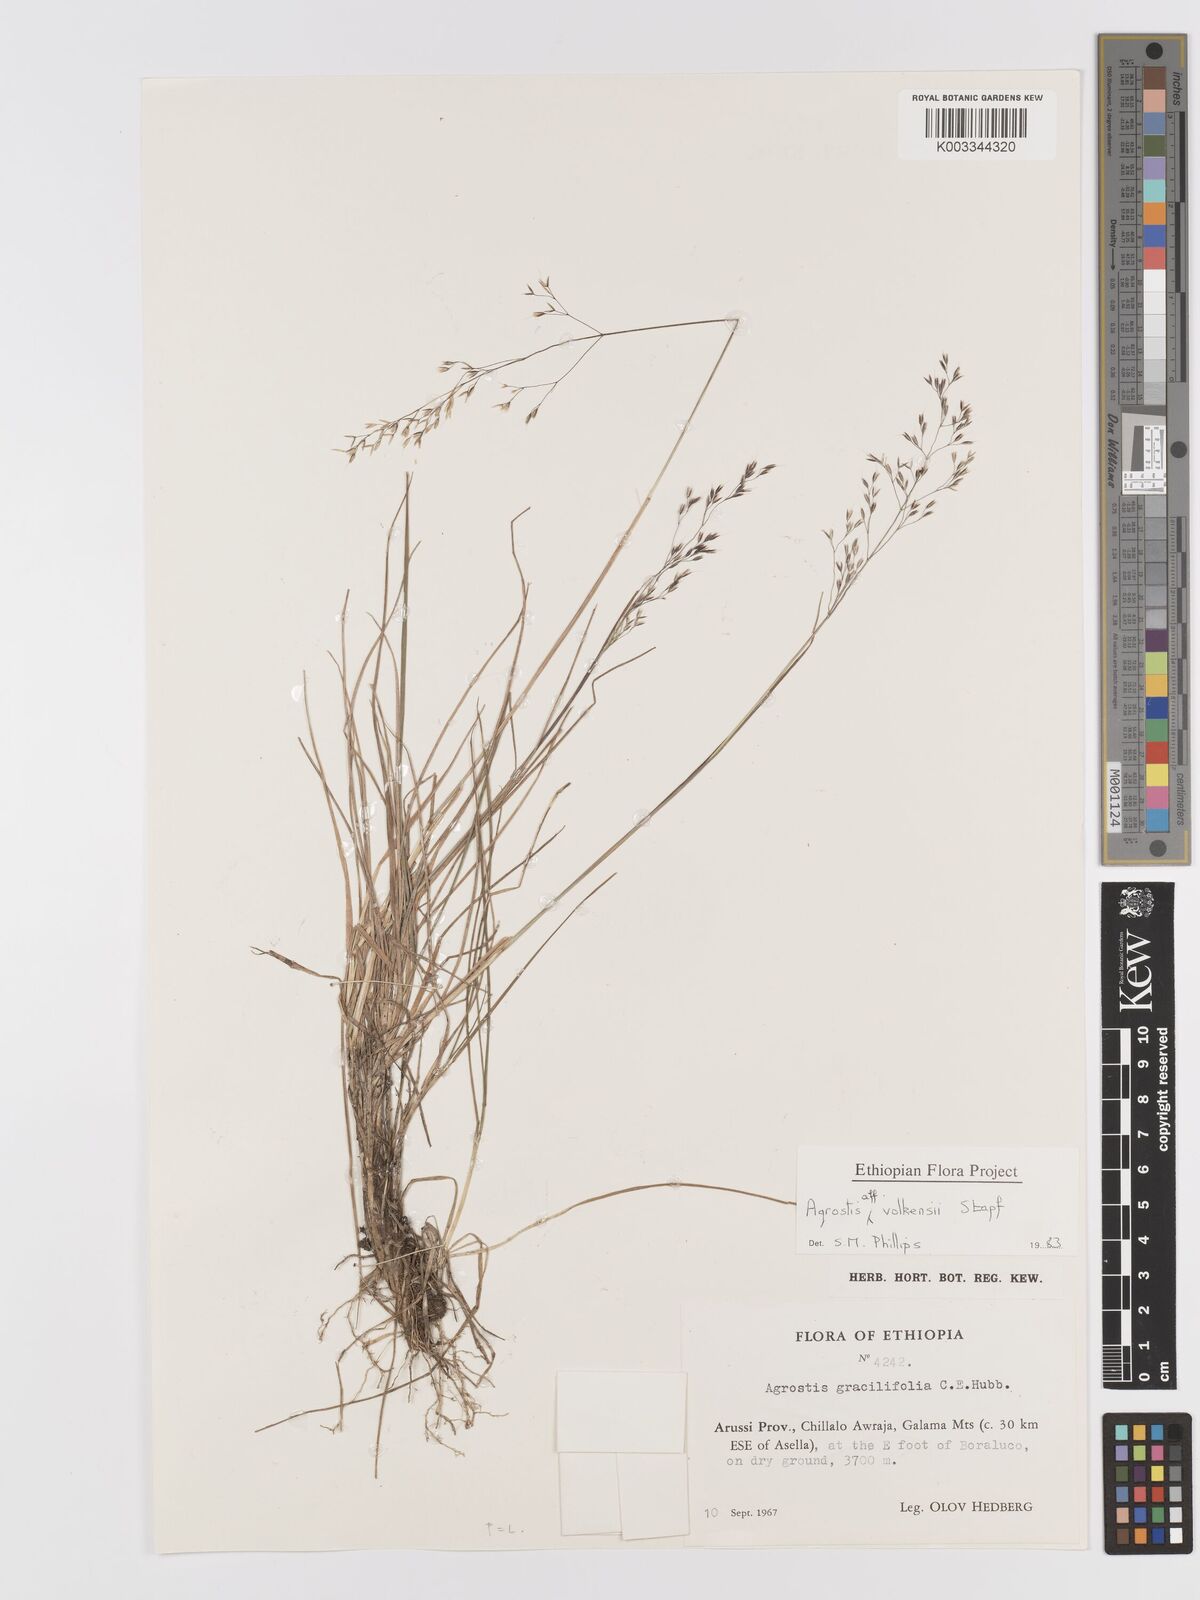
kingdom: Plantae
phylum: Tracheophyta
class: Liliopsida
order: Poales
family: Poaceae
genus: Agrostis
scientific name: Agrostis volkensii
